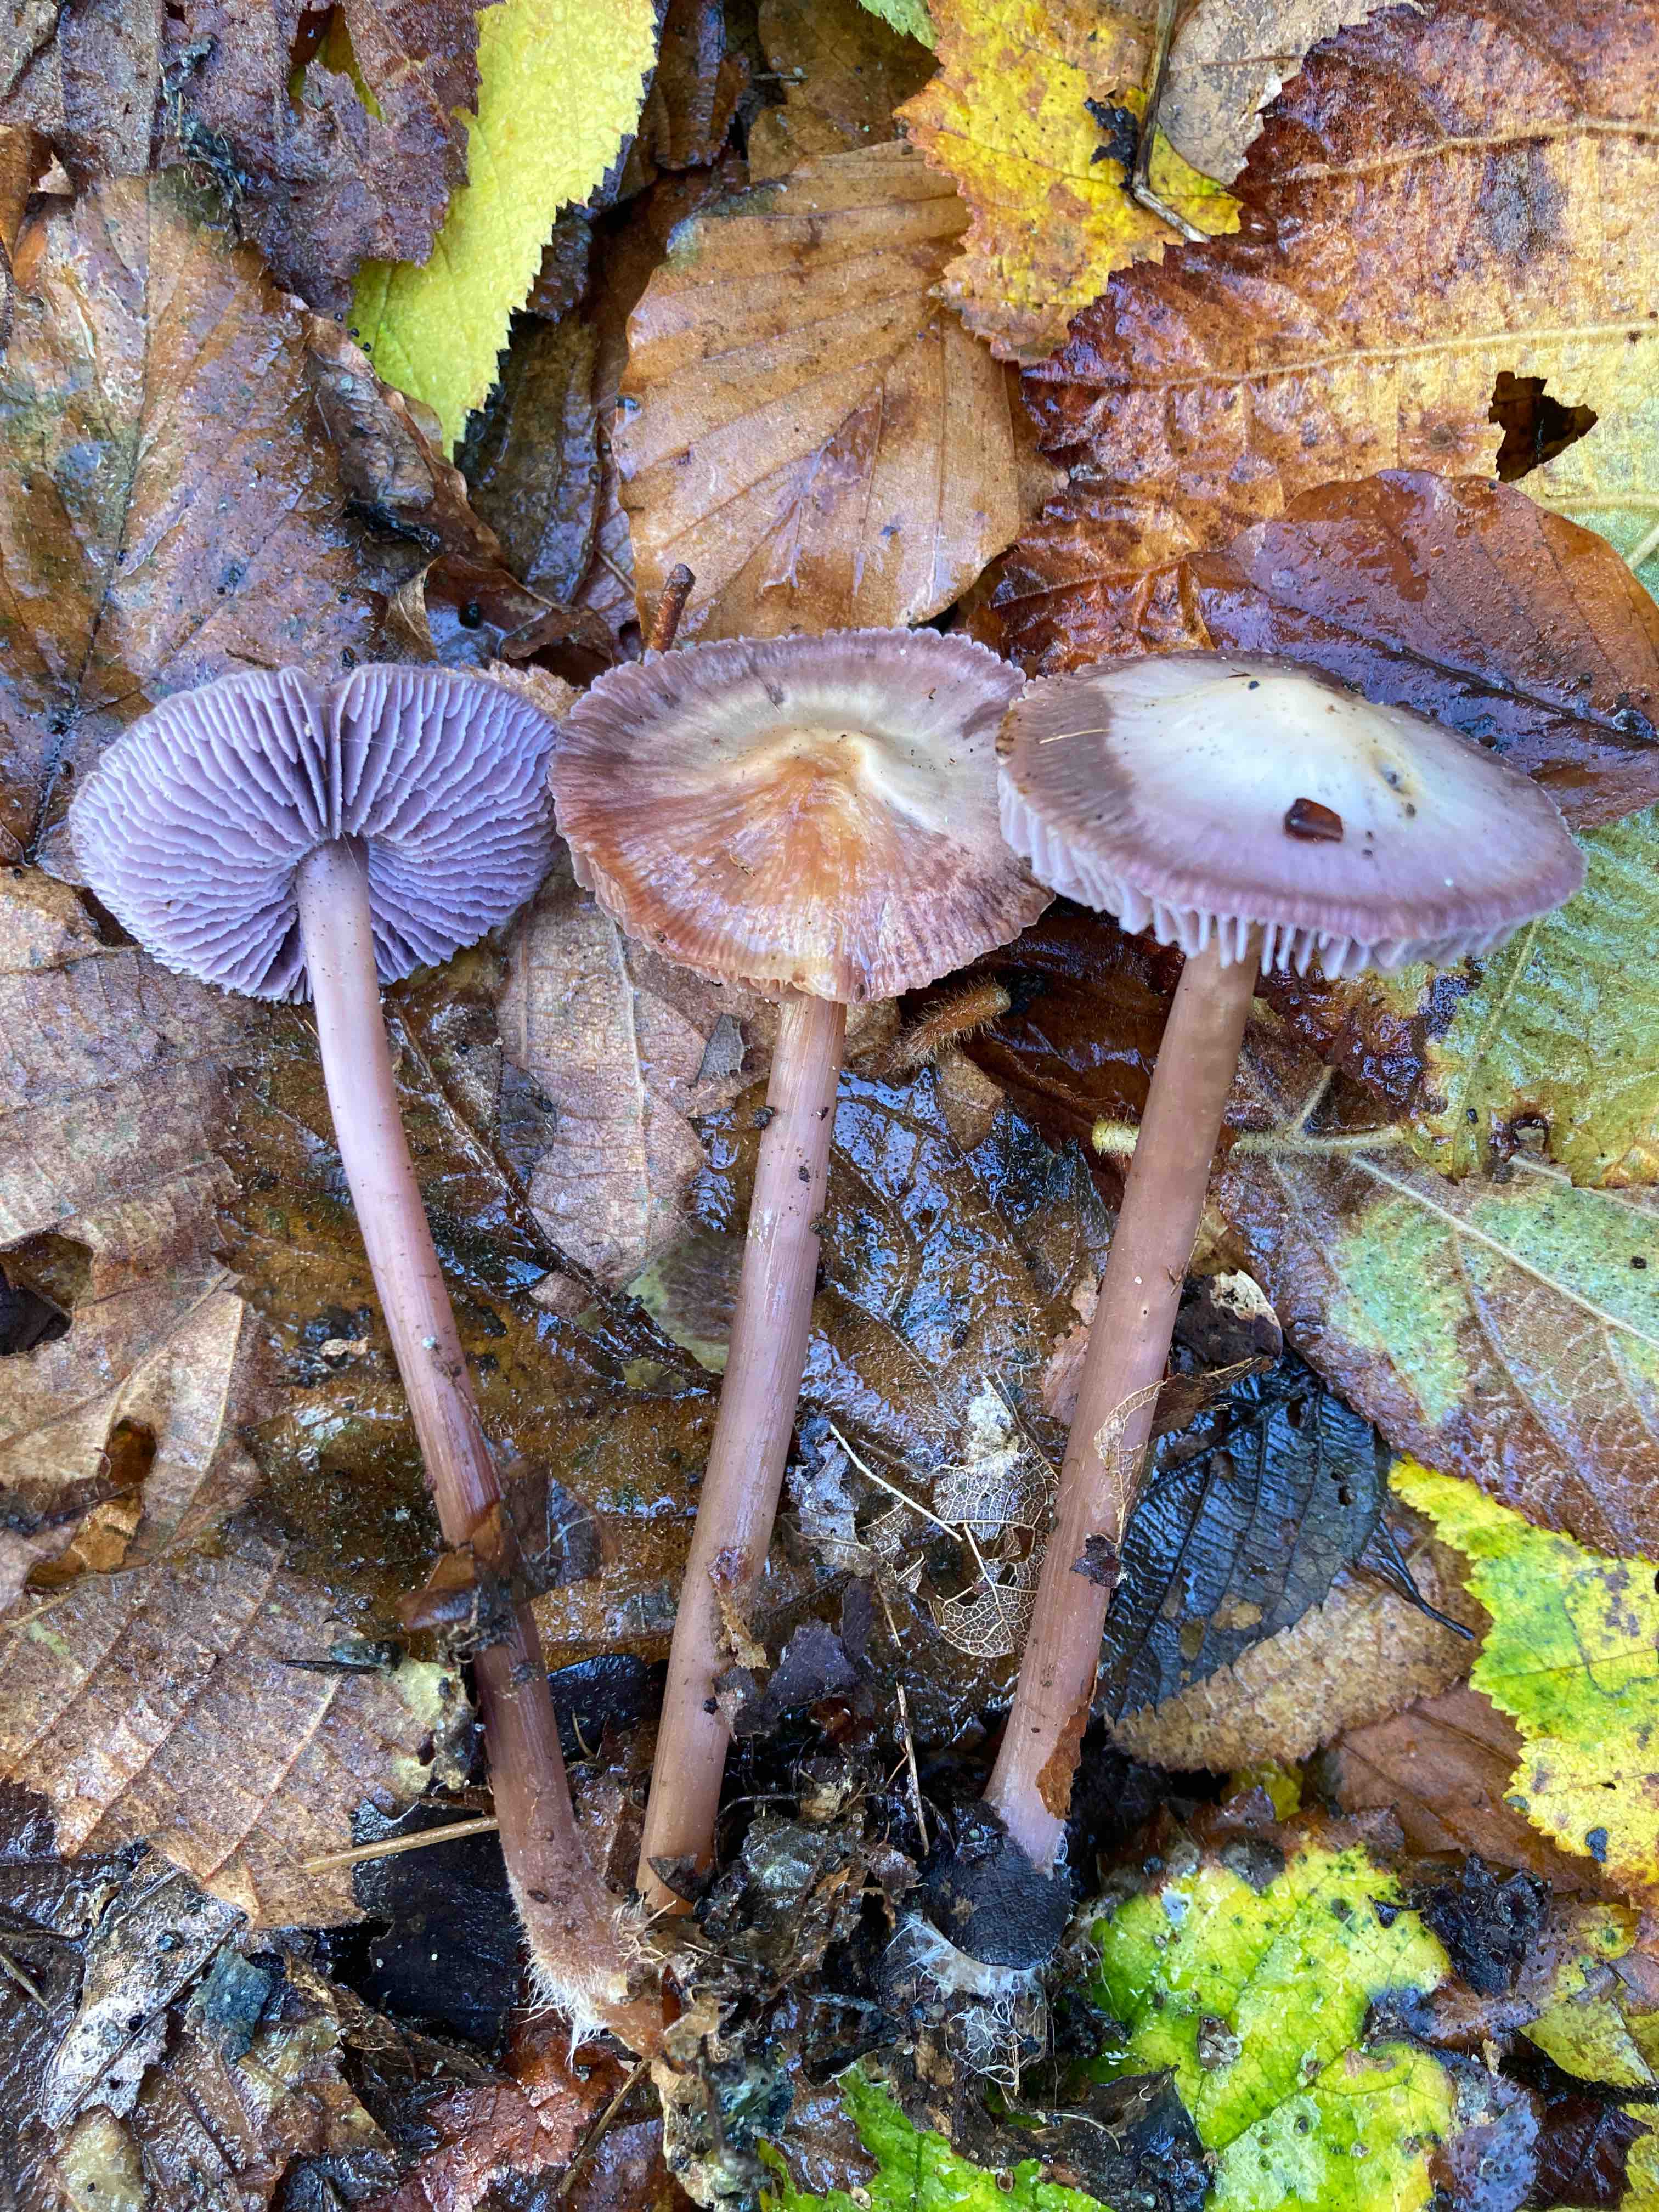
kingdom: Fungi
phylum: Basidiomycota
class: Agaricomycetes
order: Agaricales
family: Mycenaceae
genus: Prunulus
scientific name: Prunulus diosmus
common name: tobaks-huesvamp
